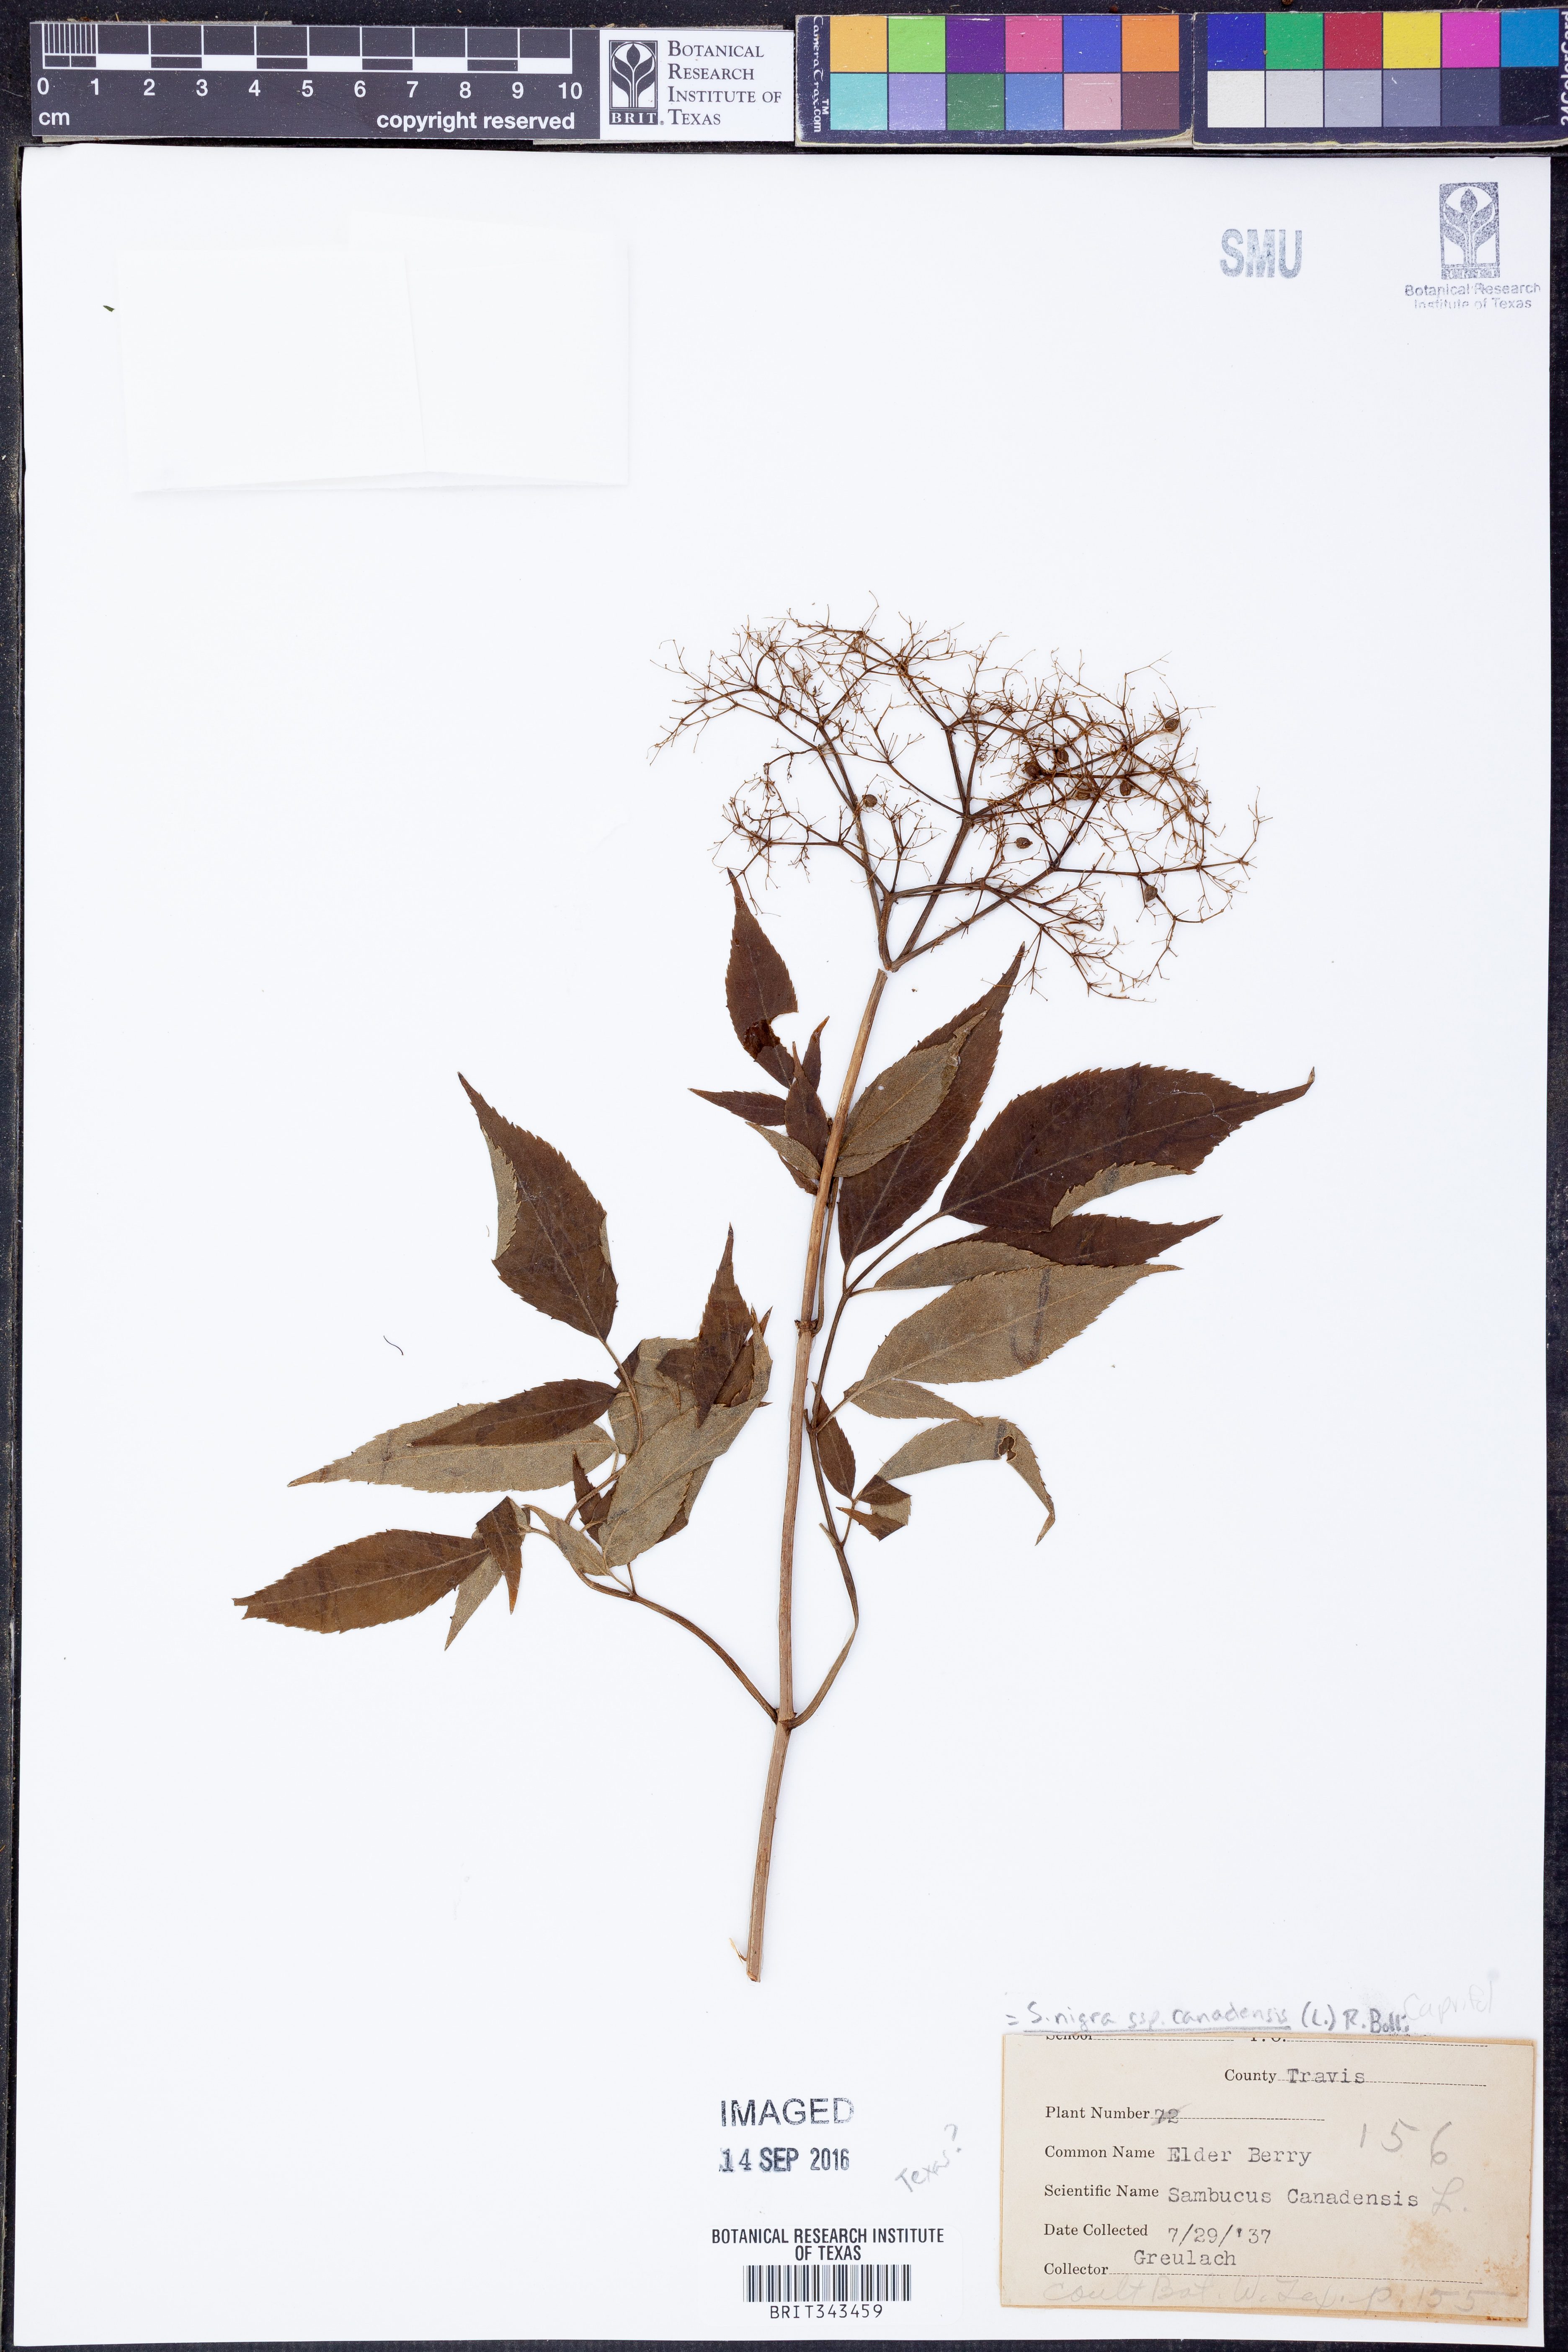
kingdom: Plantae
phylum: Tracheophyta
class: Magnoliopsida
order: Dipsacales
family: Viburnaceae
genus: Sambucus
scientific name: Sambucus canadensis
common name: American elder
